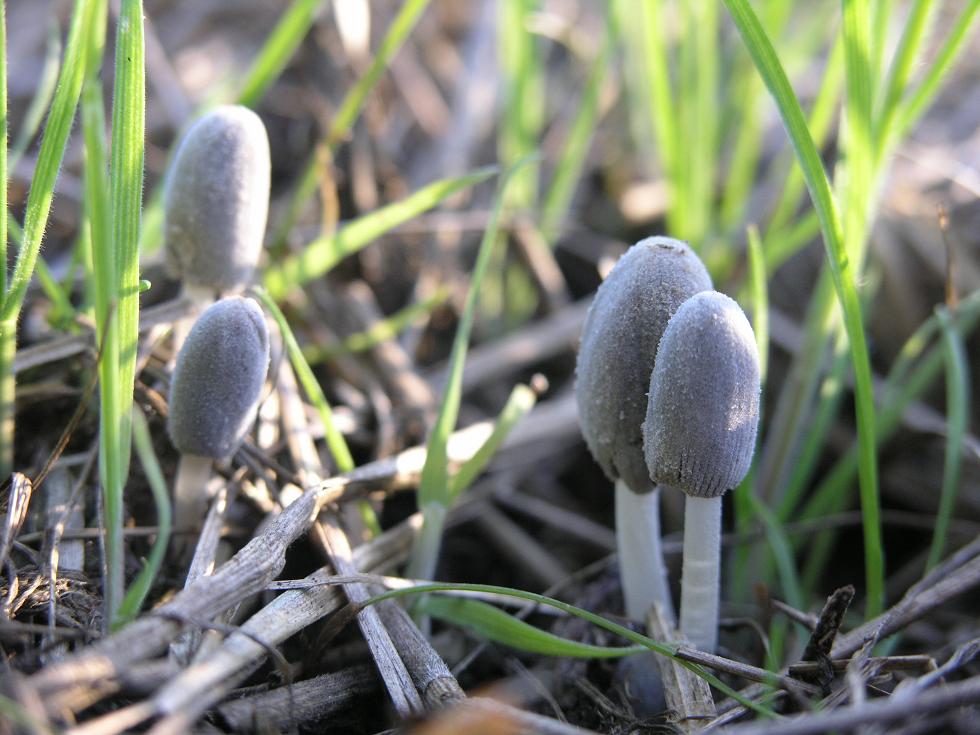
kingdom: Fungi
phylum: Basidiomycota
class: Agaricomycetes
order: Agaricales
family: Psathyrellaceae
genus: Coprinopsis
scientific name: Coprinopsis tuberosa
